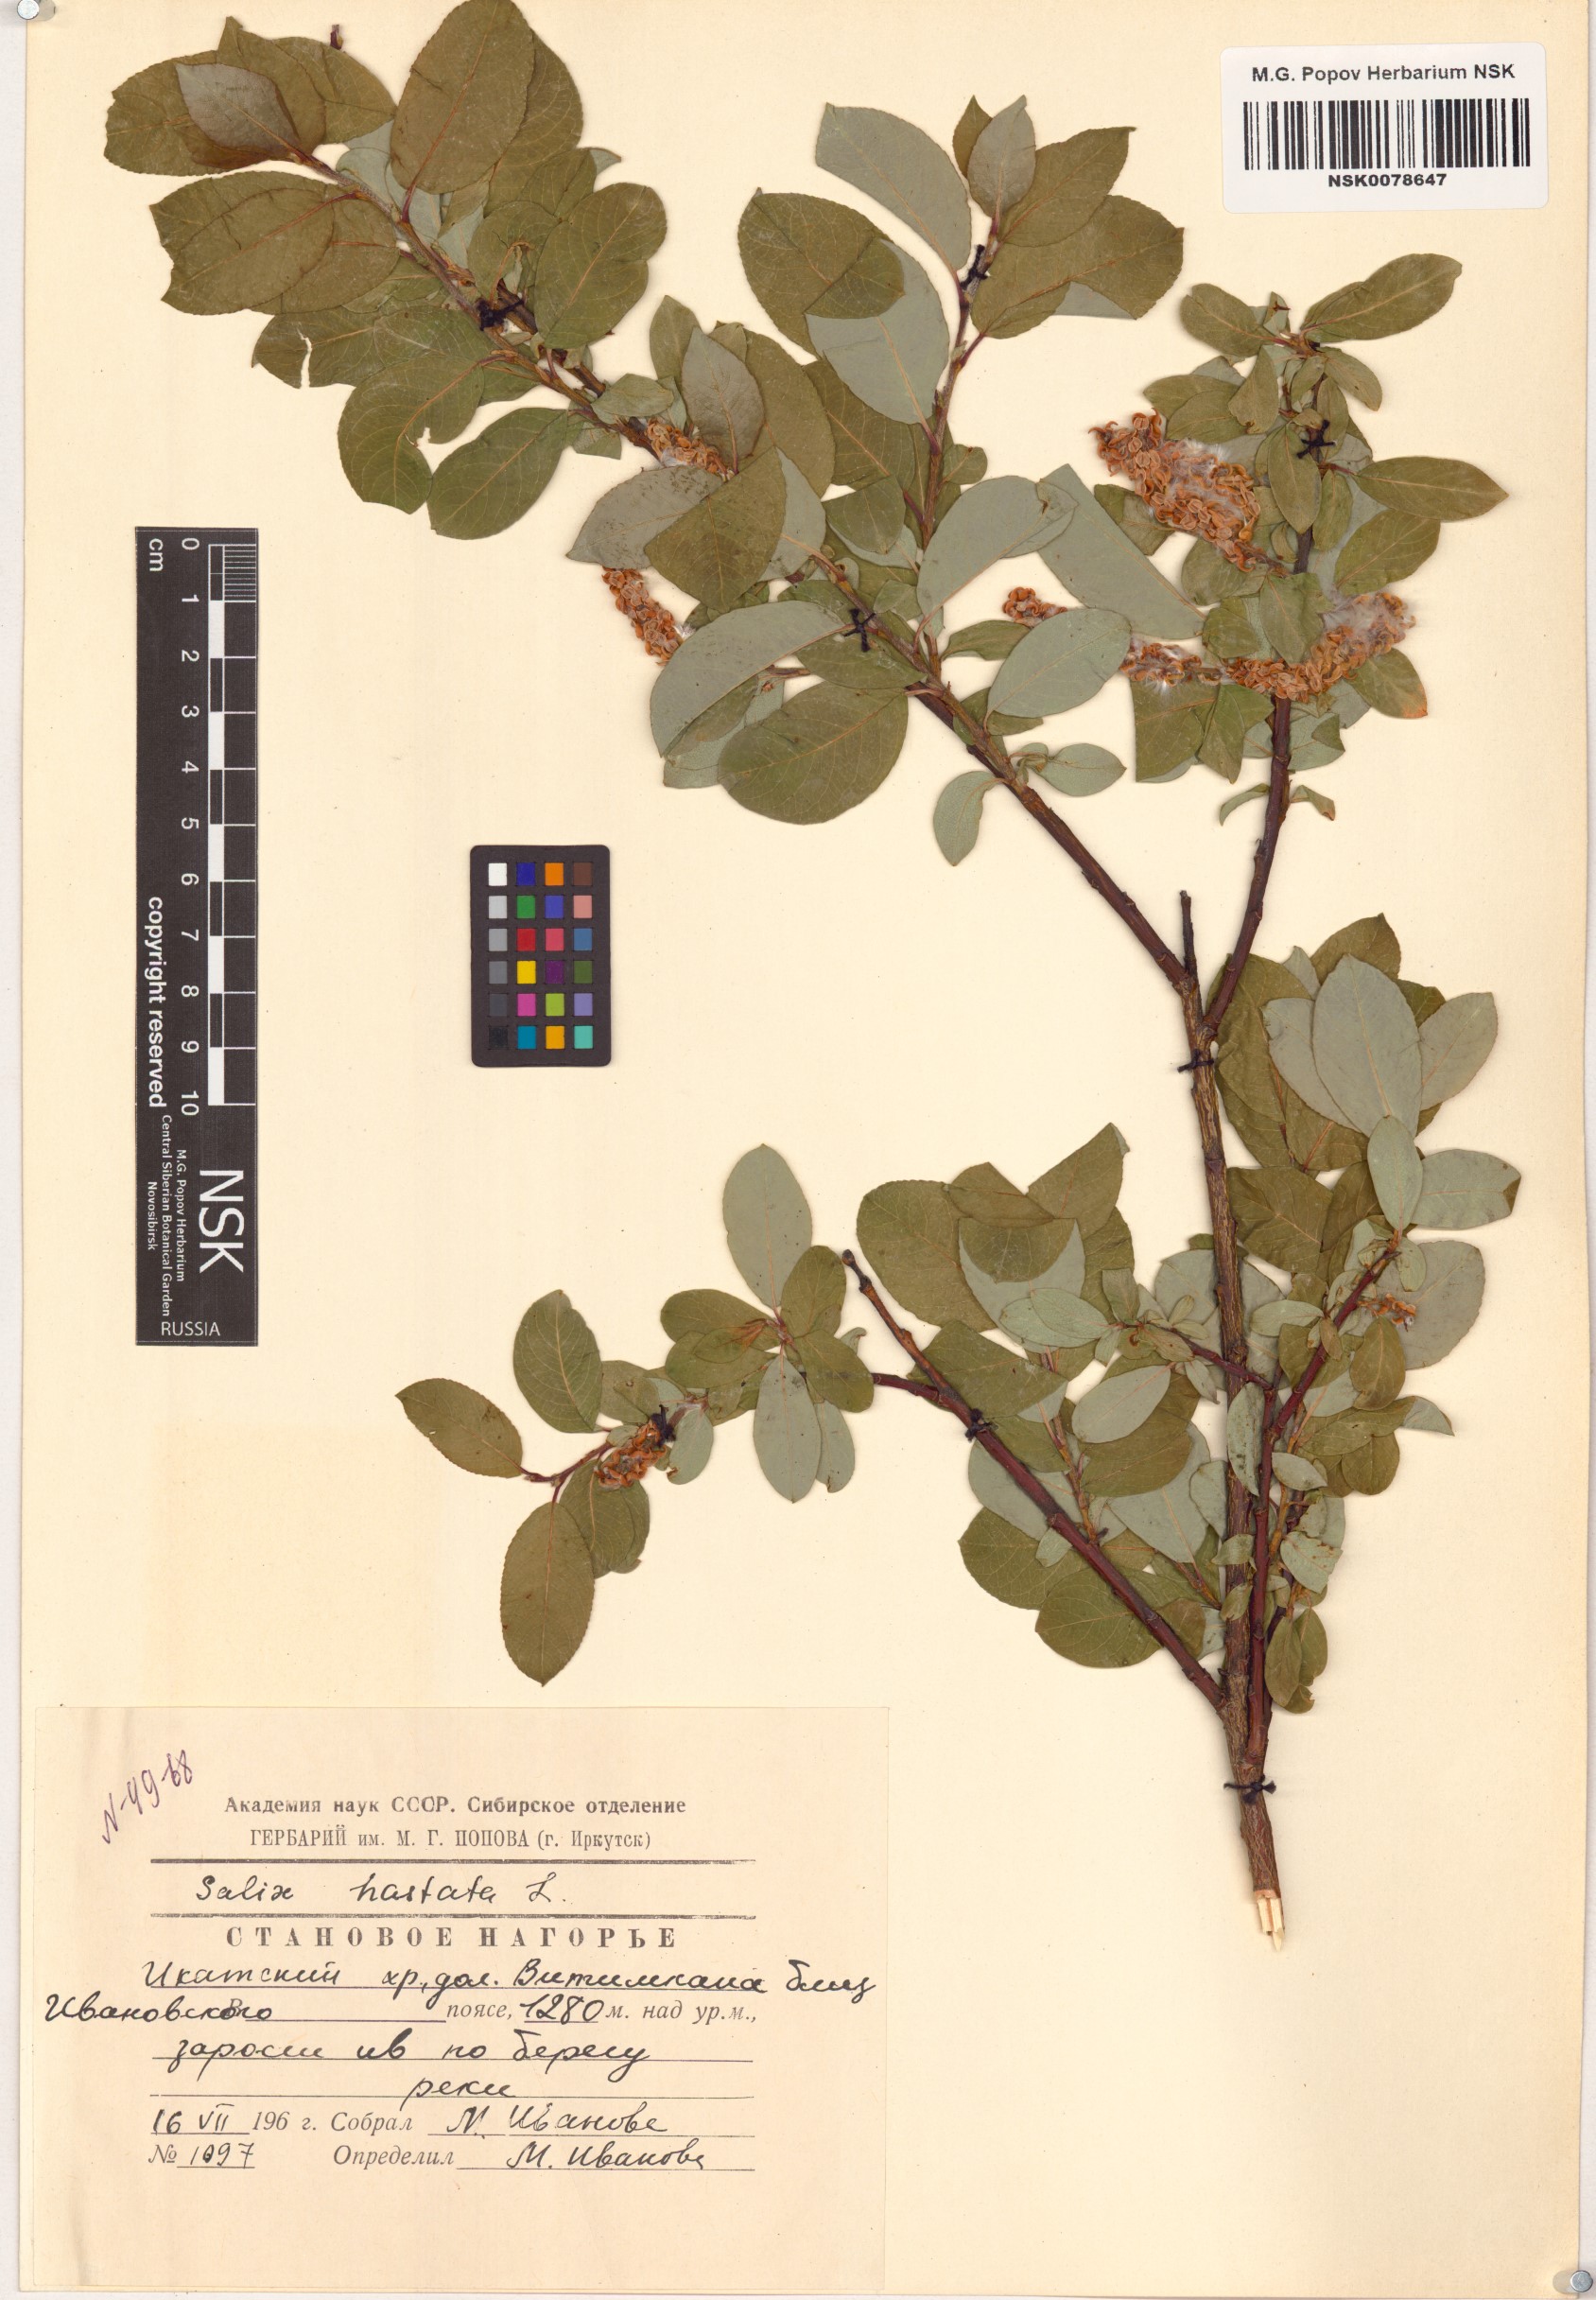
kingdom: Plantae
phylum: Tracheophyta
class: Magnoliopsida
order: Malpighiales
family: Salicaceae
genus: Salix
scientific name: Salix hastata
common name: Halberd willow
